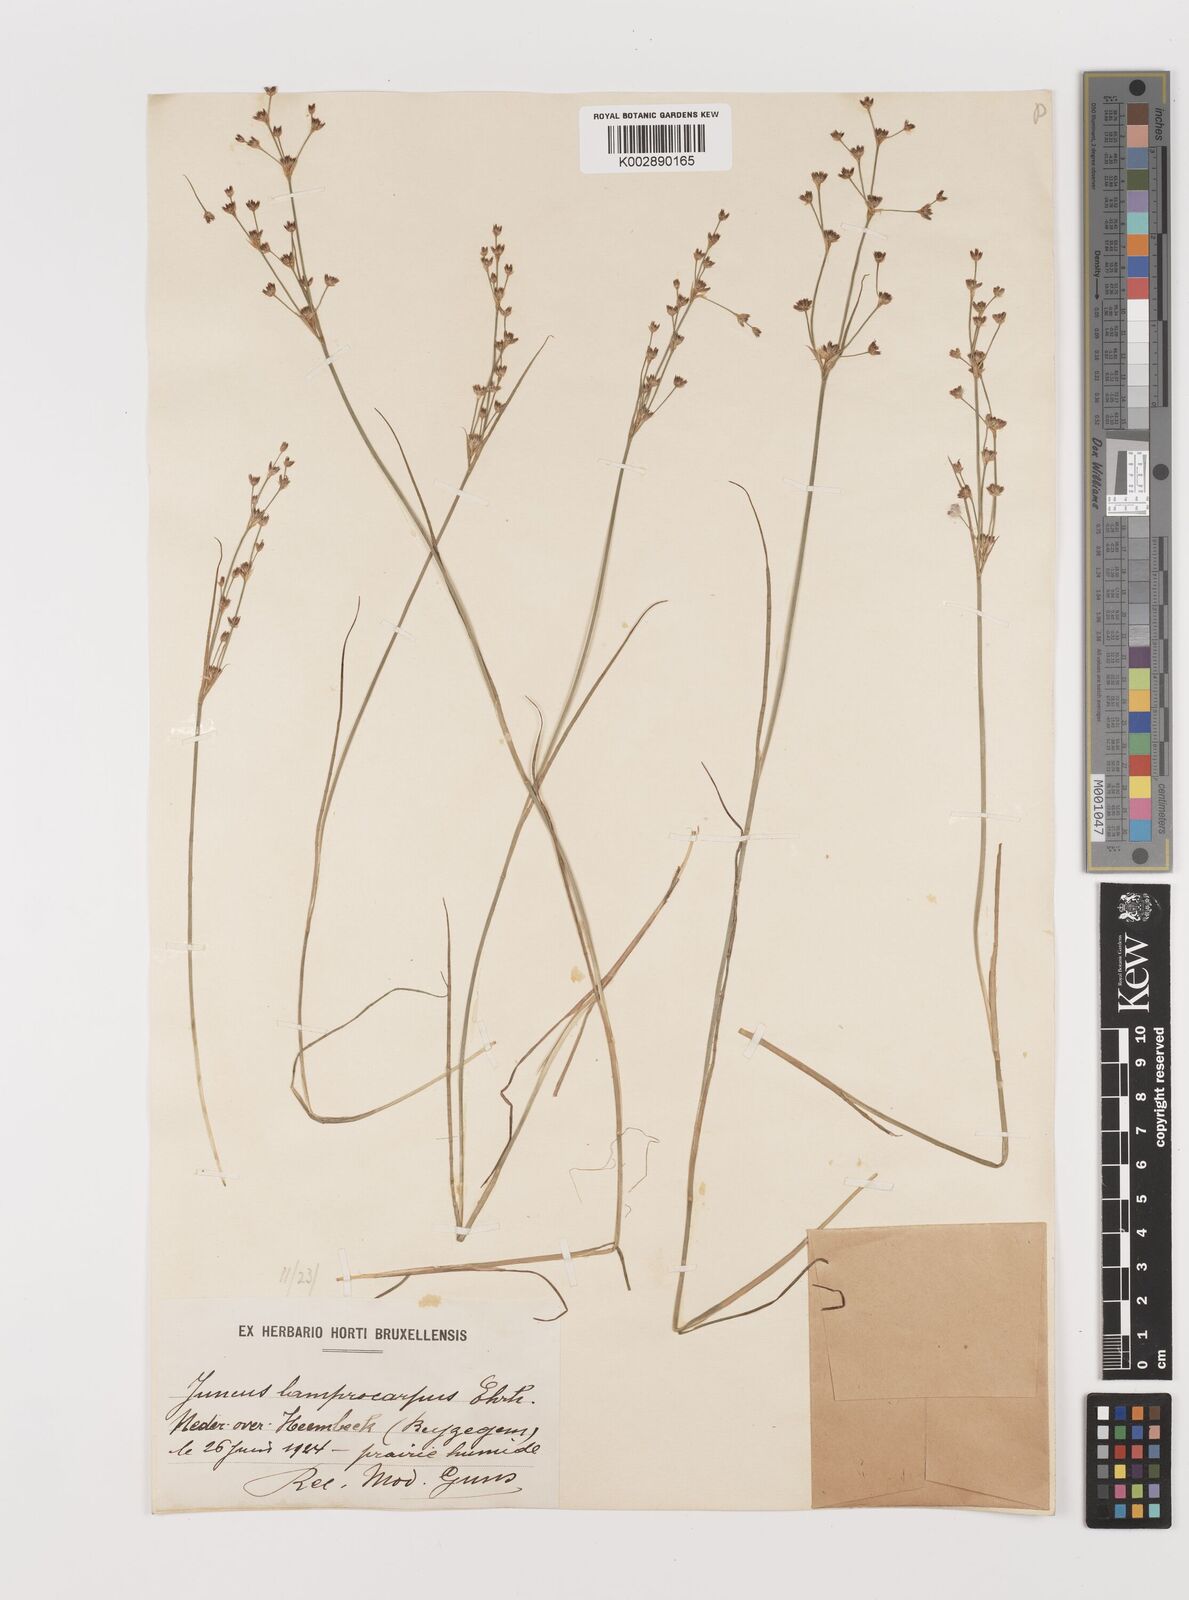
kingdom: Plantae
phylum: Tracheophyta
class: Liliopsida
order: Poales
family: Juncaceae
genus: Juncus
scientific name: Juncus articulatus
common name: Jointed rush
